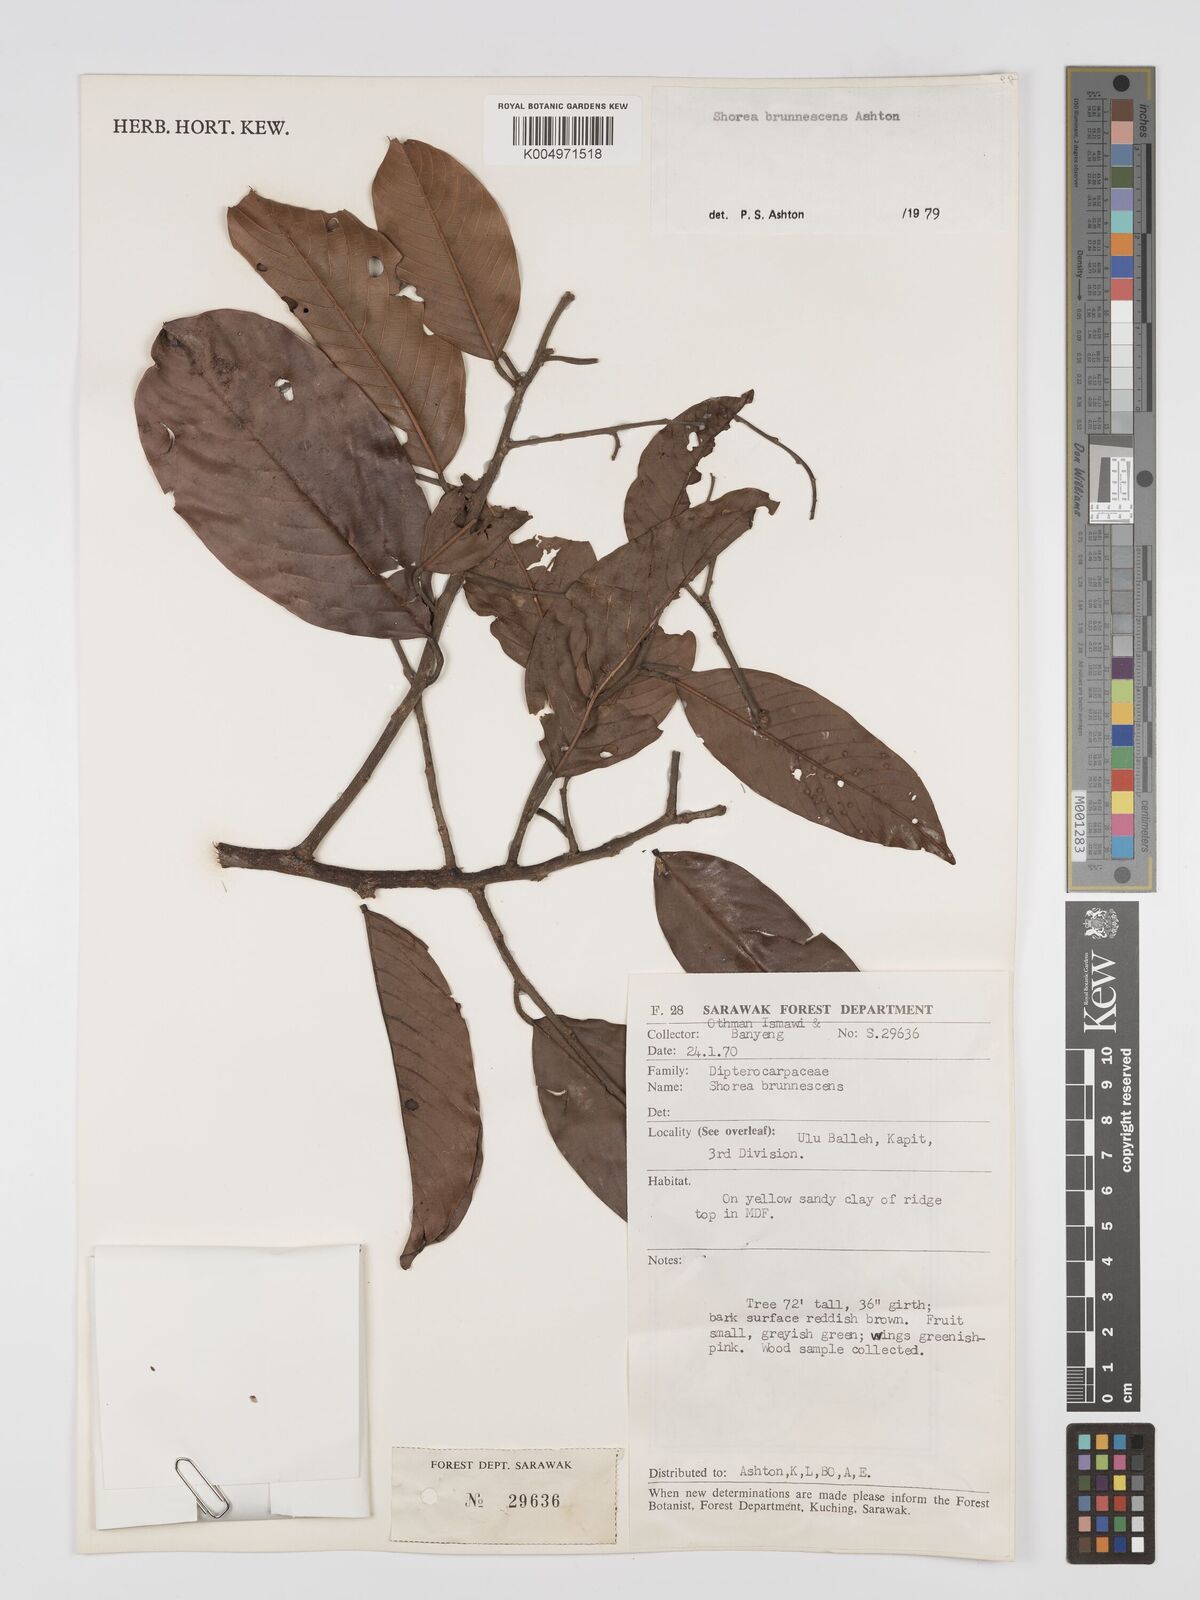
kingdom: Plantae
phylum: Tracheophyta
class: Magnoliopsida
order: Malvales
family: Dipterocarpaceae
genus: Shorea
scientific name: Shorea brunnescens
